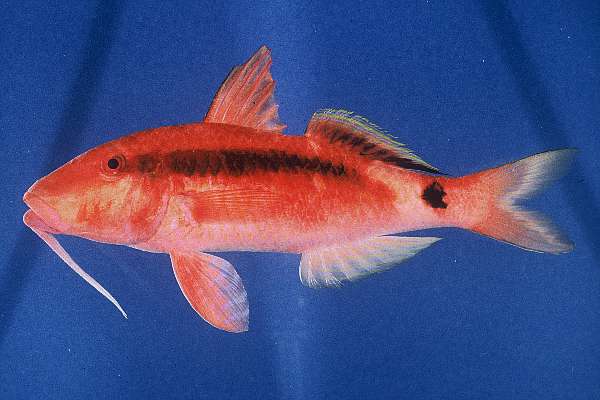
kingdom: Animalia
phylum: Chordata
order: Perciformes
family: Mullidae
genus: Parupeneus
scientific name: Parupeneus macronemus
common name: Long-barbel goatfish
